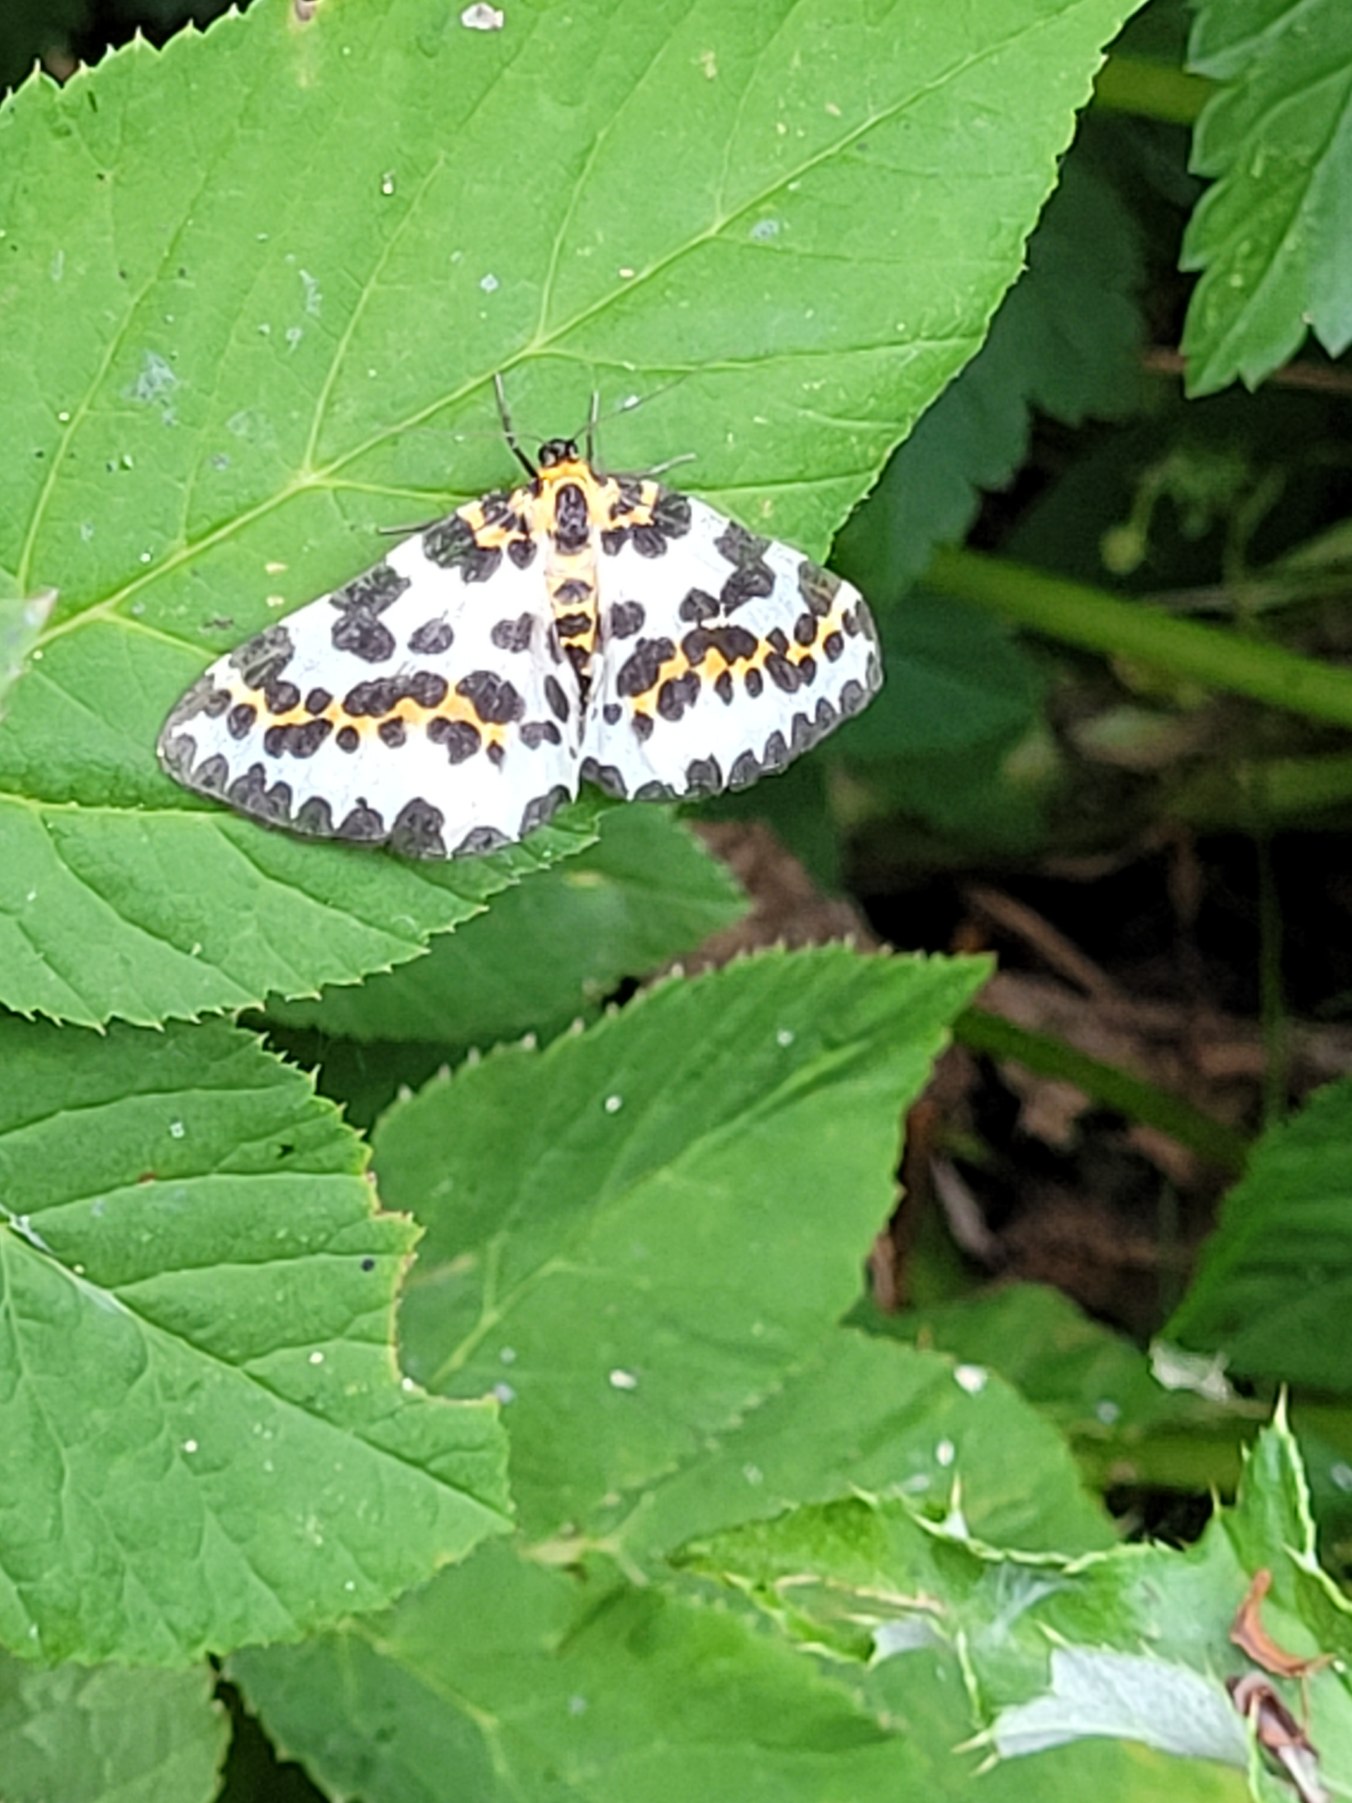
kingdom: Animalia
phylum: Arthropoda
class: Insecta
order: Lepidoptera
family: Geometridae
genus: Abraxas
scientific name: Abraxas grossulariata
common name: Harlekin
